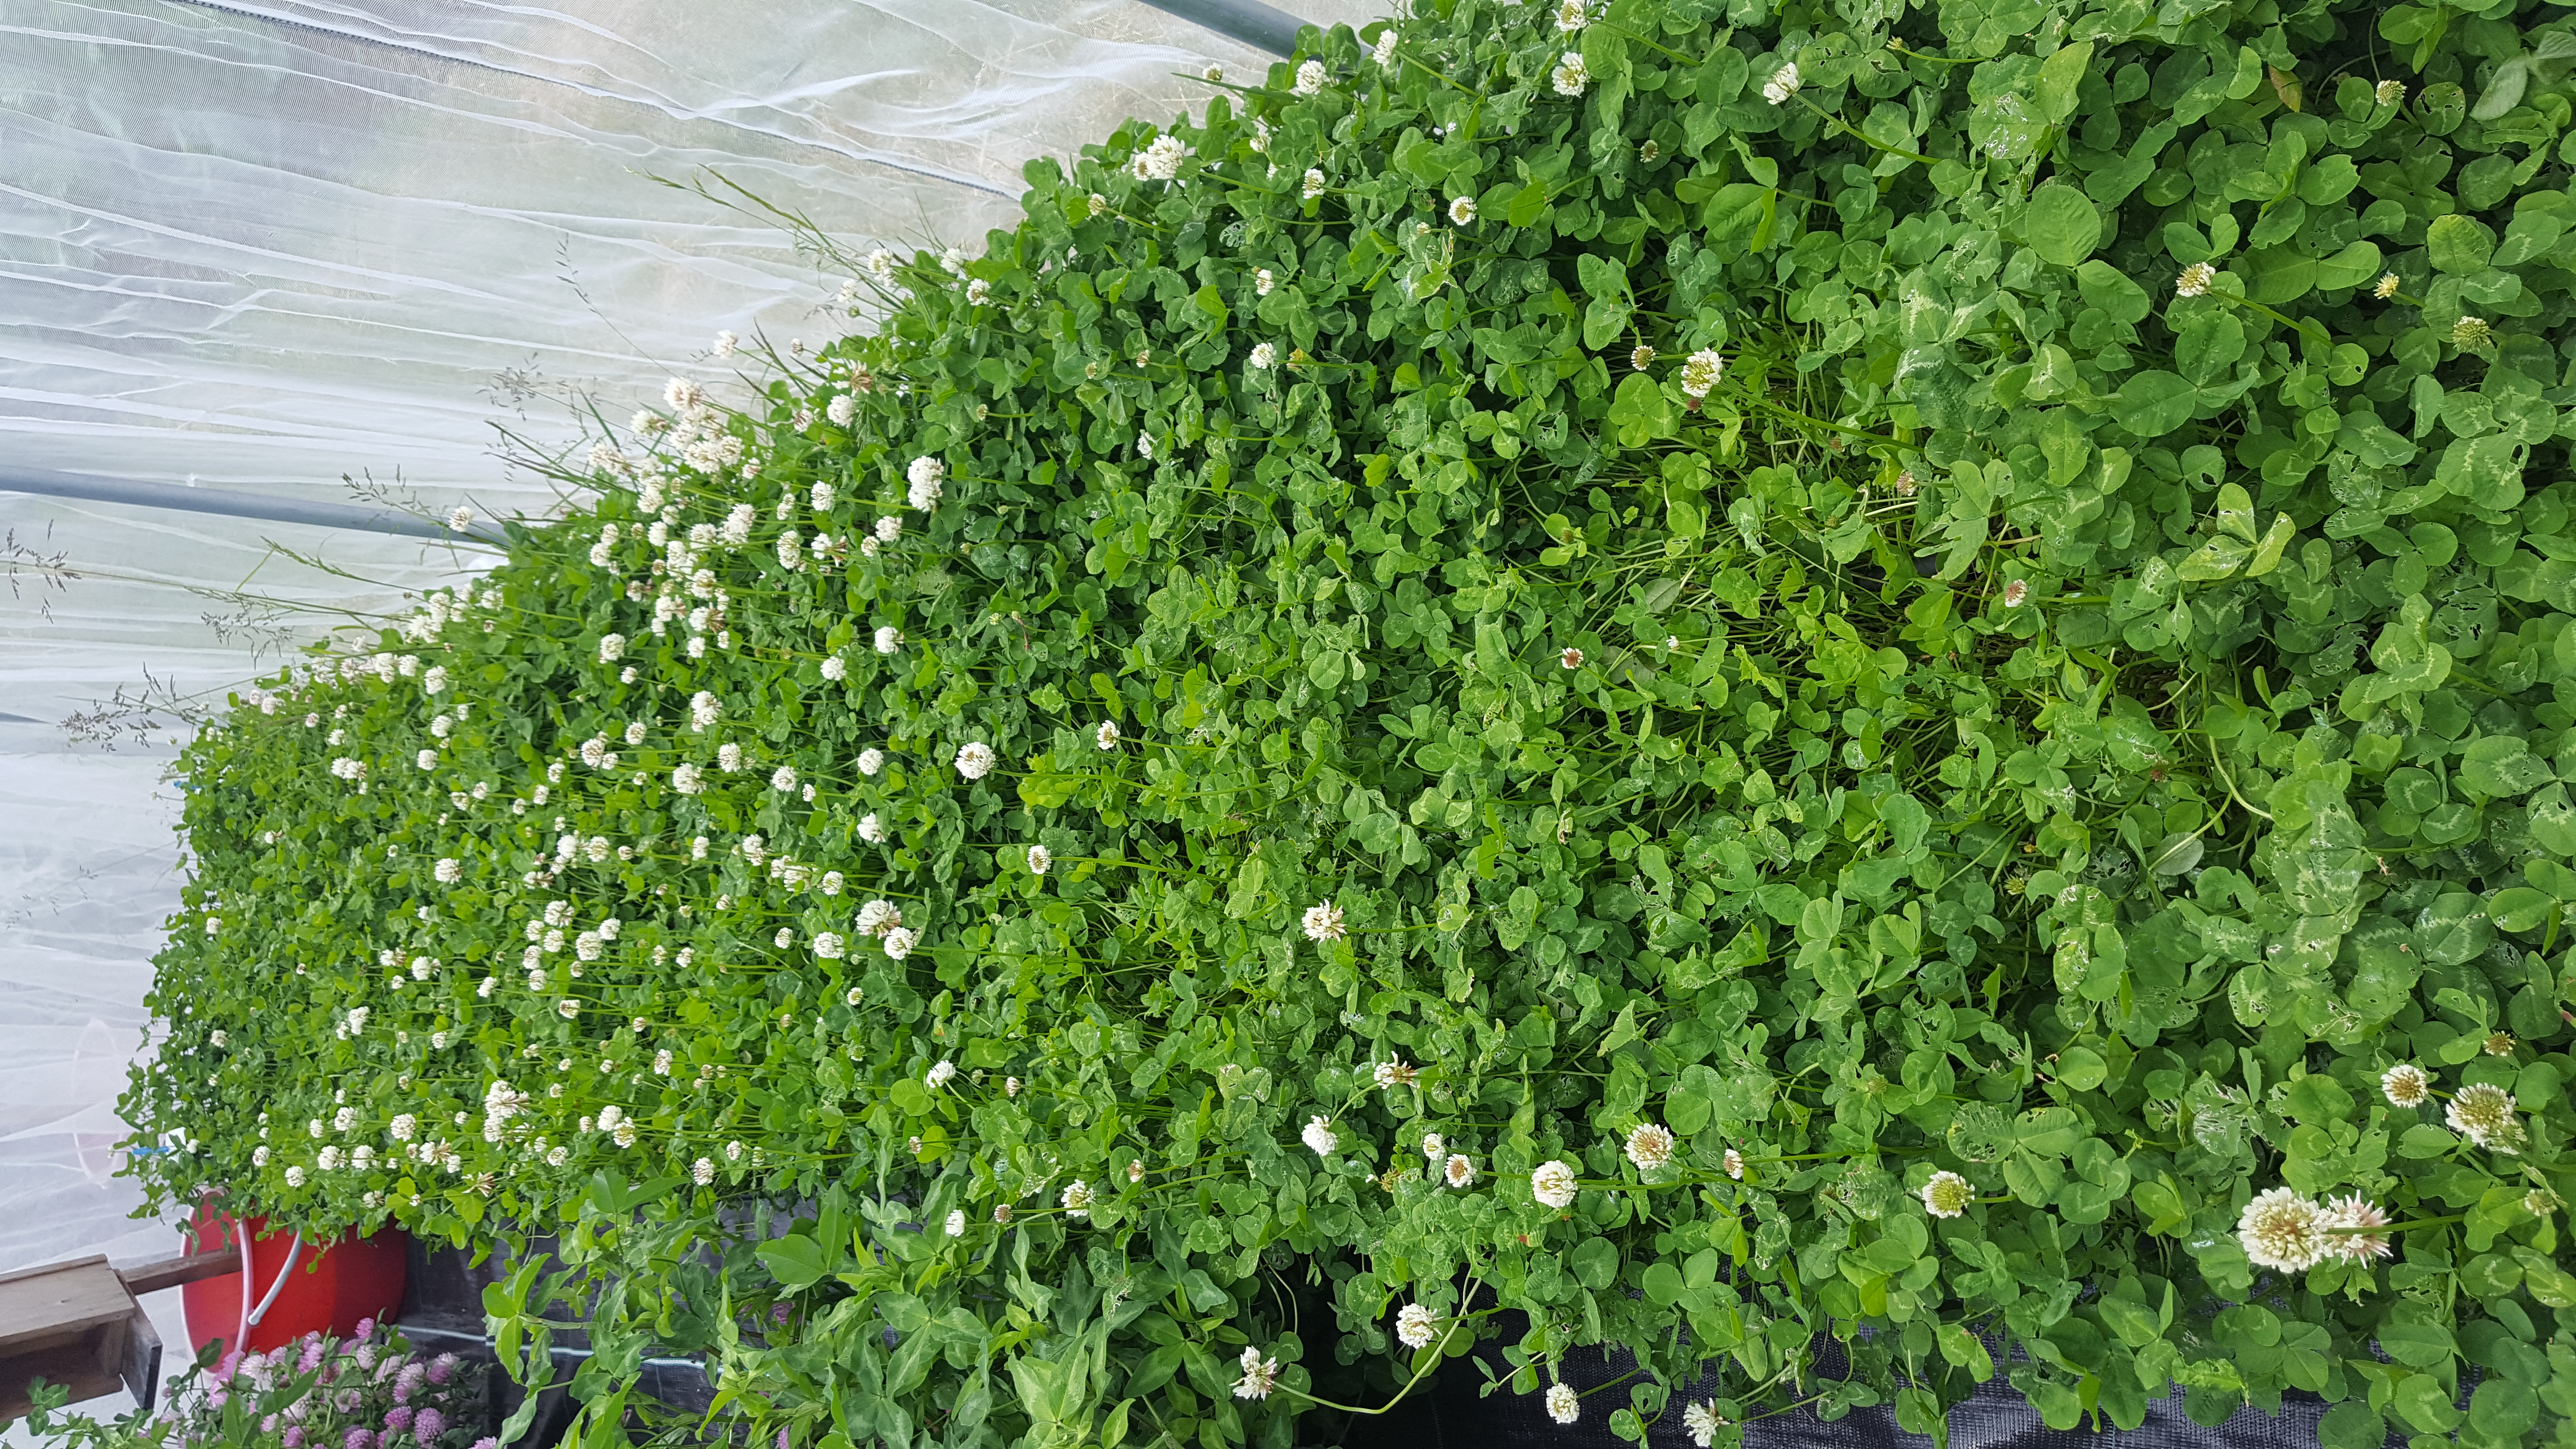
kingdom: Plantae
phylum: Tracheophyta
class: Magnoliopsida
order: Fabales
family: Fabaceae
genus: Trifolium
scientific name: Trifolium repens
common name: White clover
